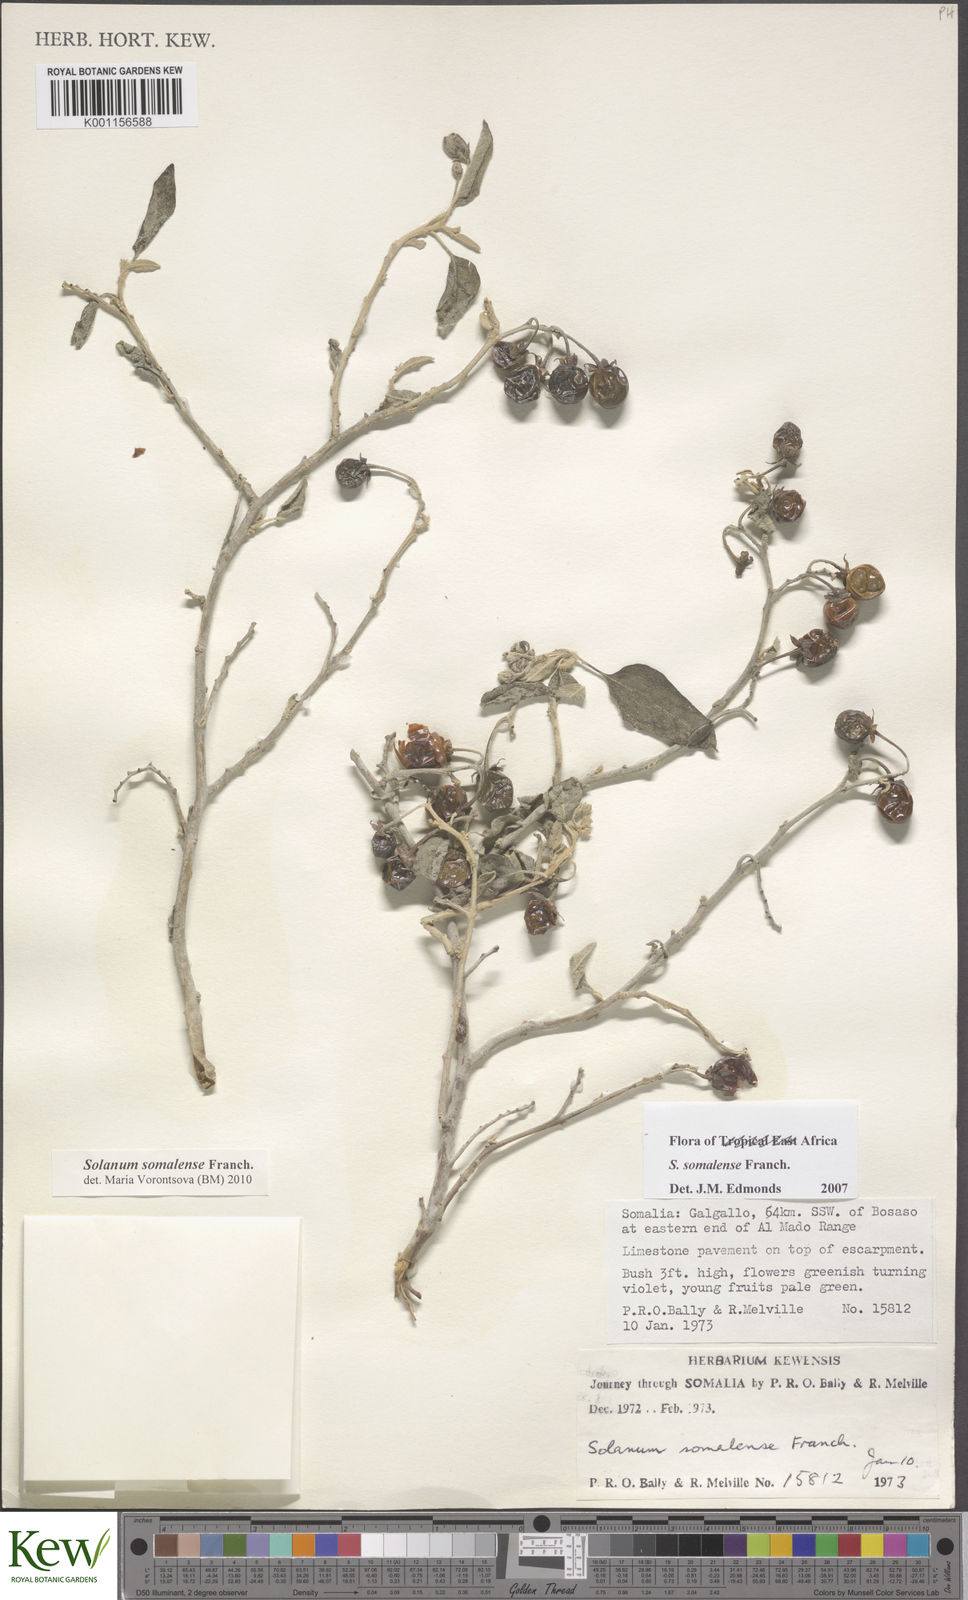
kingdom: Plantae
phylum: Tracheophyta
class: Magnoliopsida
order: Solanales
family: Solanaceae
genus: Solanum
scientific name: Solanum somalense
